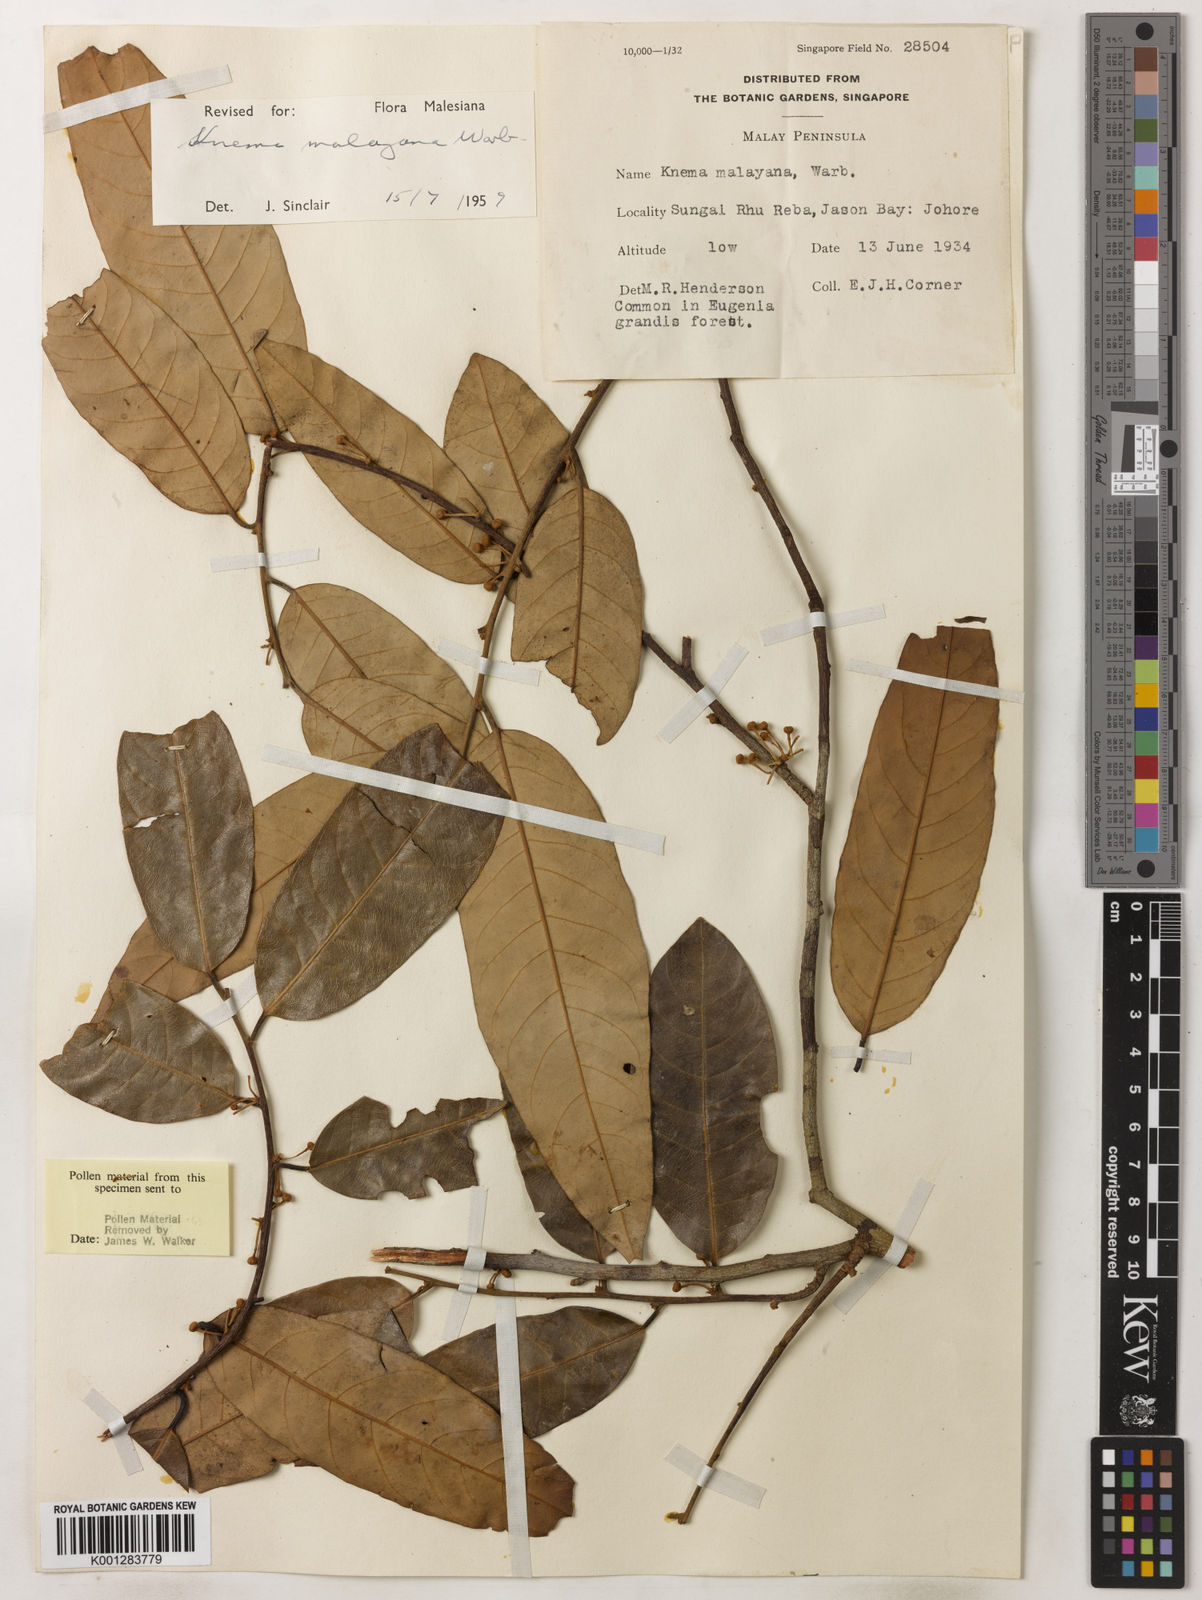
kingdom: Plantae
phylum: Tracheophyta
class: Magnoliopsida
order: Magnoliales
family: Myristicaceae
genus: Knema
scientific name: Knema malayana
